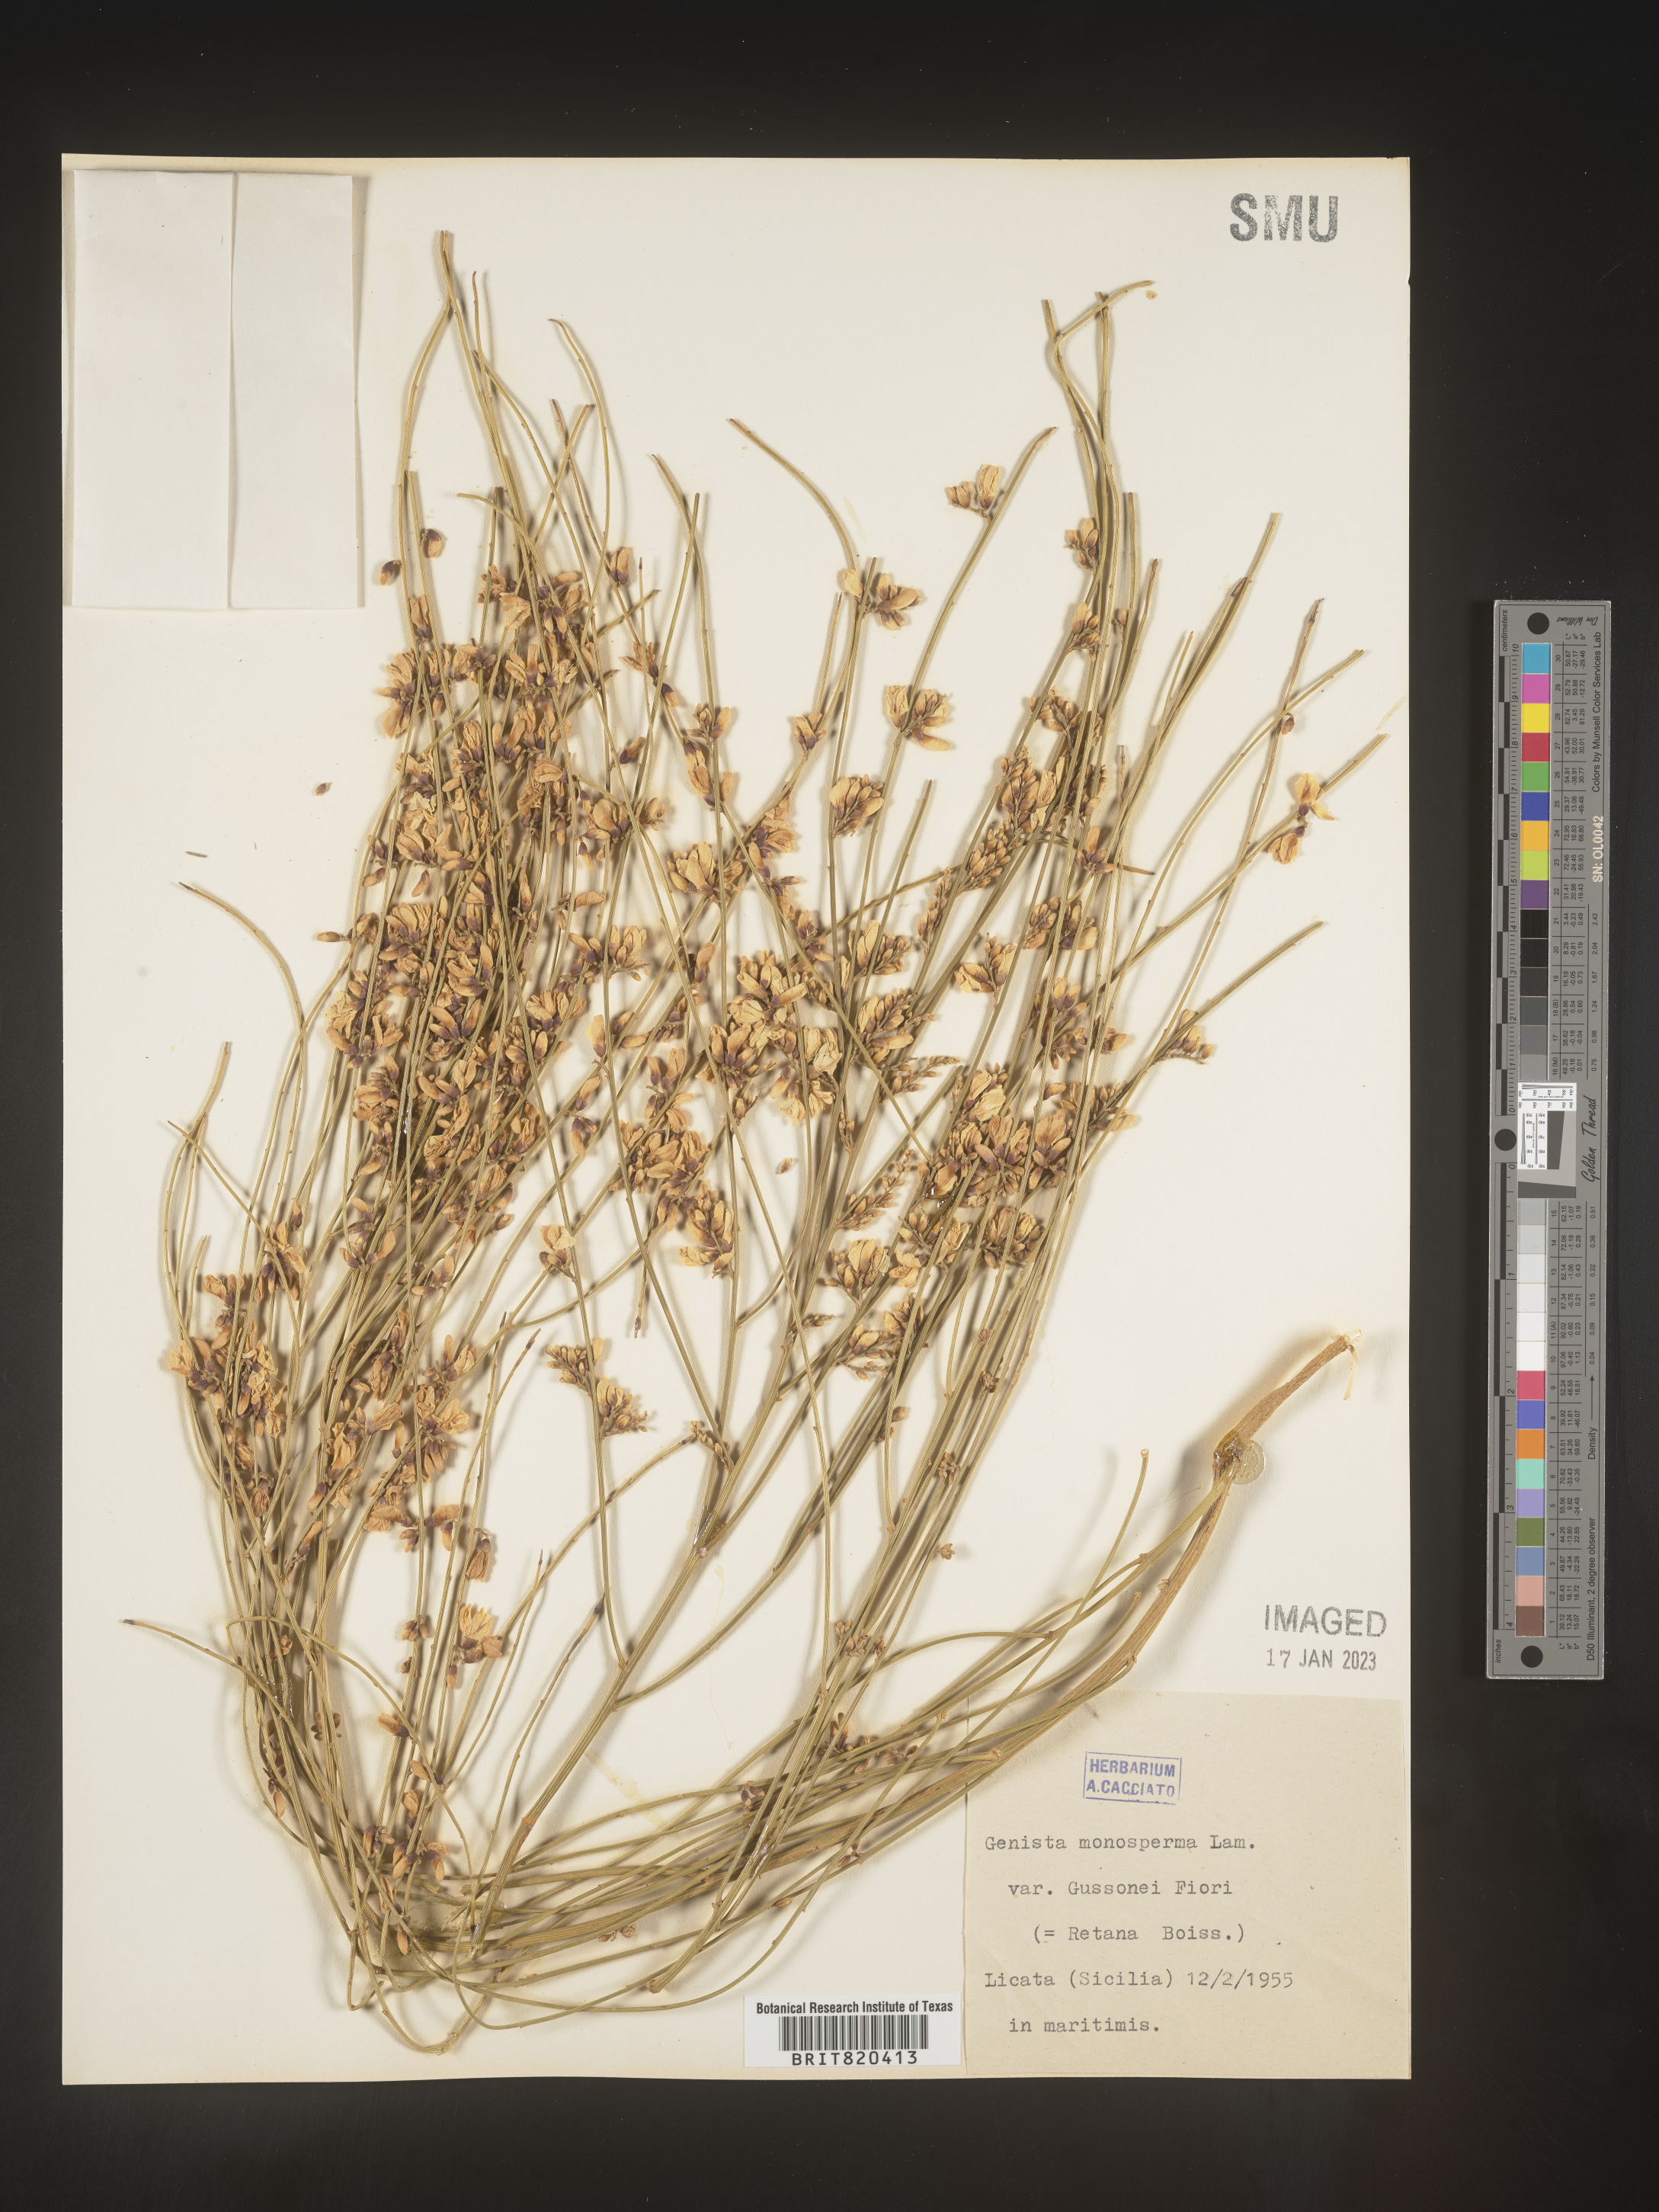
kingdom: Plantae
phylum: Tracheophyta
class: Magnoliopsida
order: Fabales
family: Fabaceae
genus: Genista
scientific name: Genista
